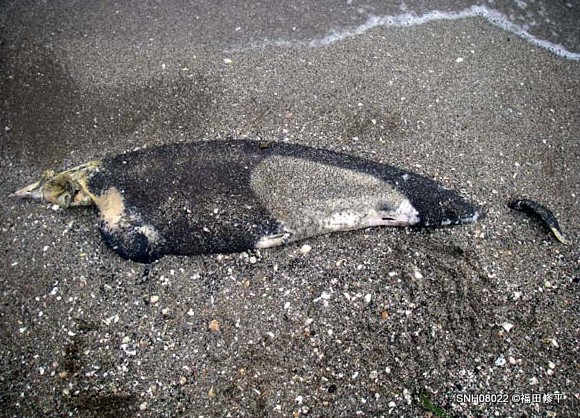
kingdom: Animalia
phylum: Chordata
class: Mammalia
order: Cetacea
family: Phocoenidae
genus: Phocoenoides
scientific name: Phocoenoides dalli
